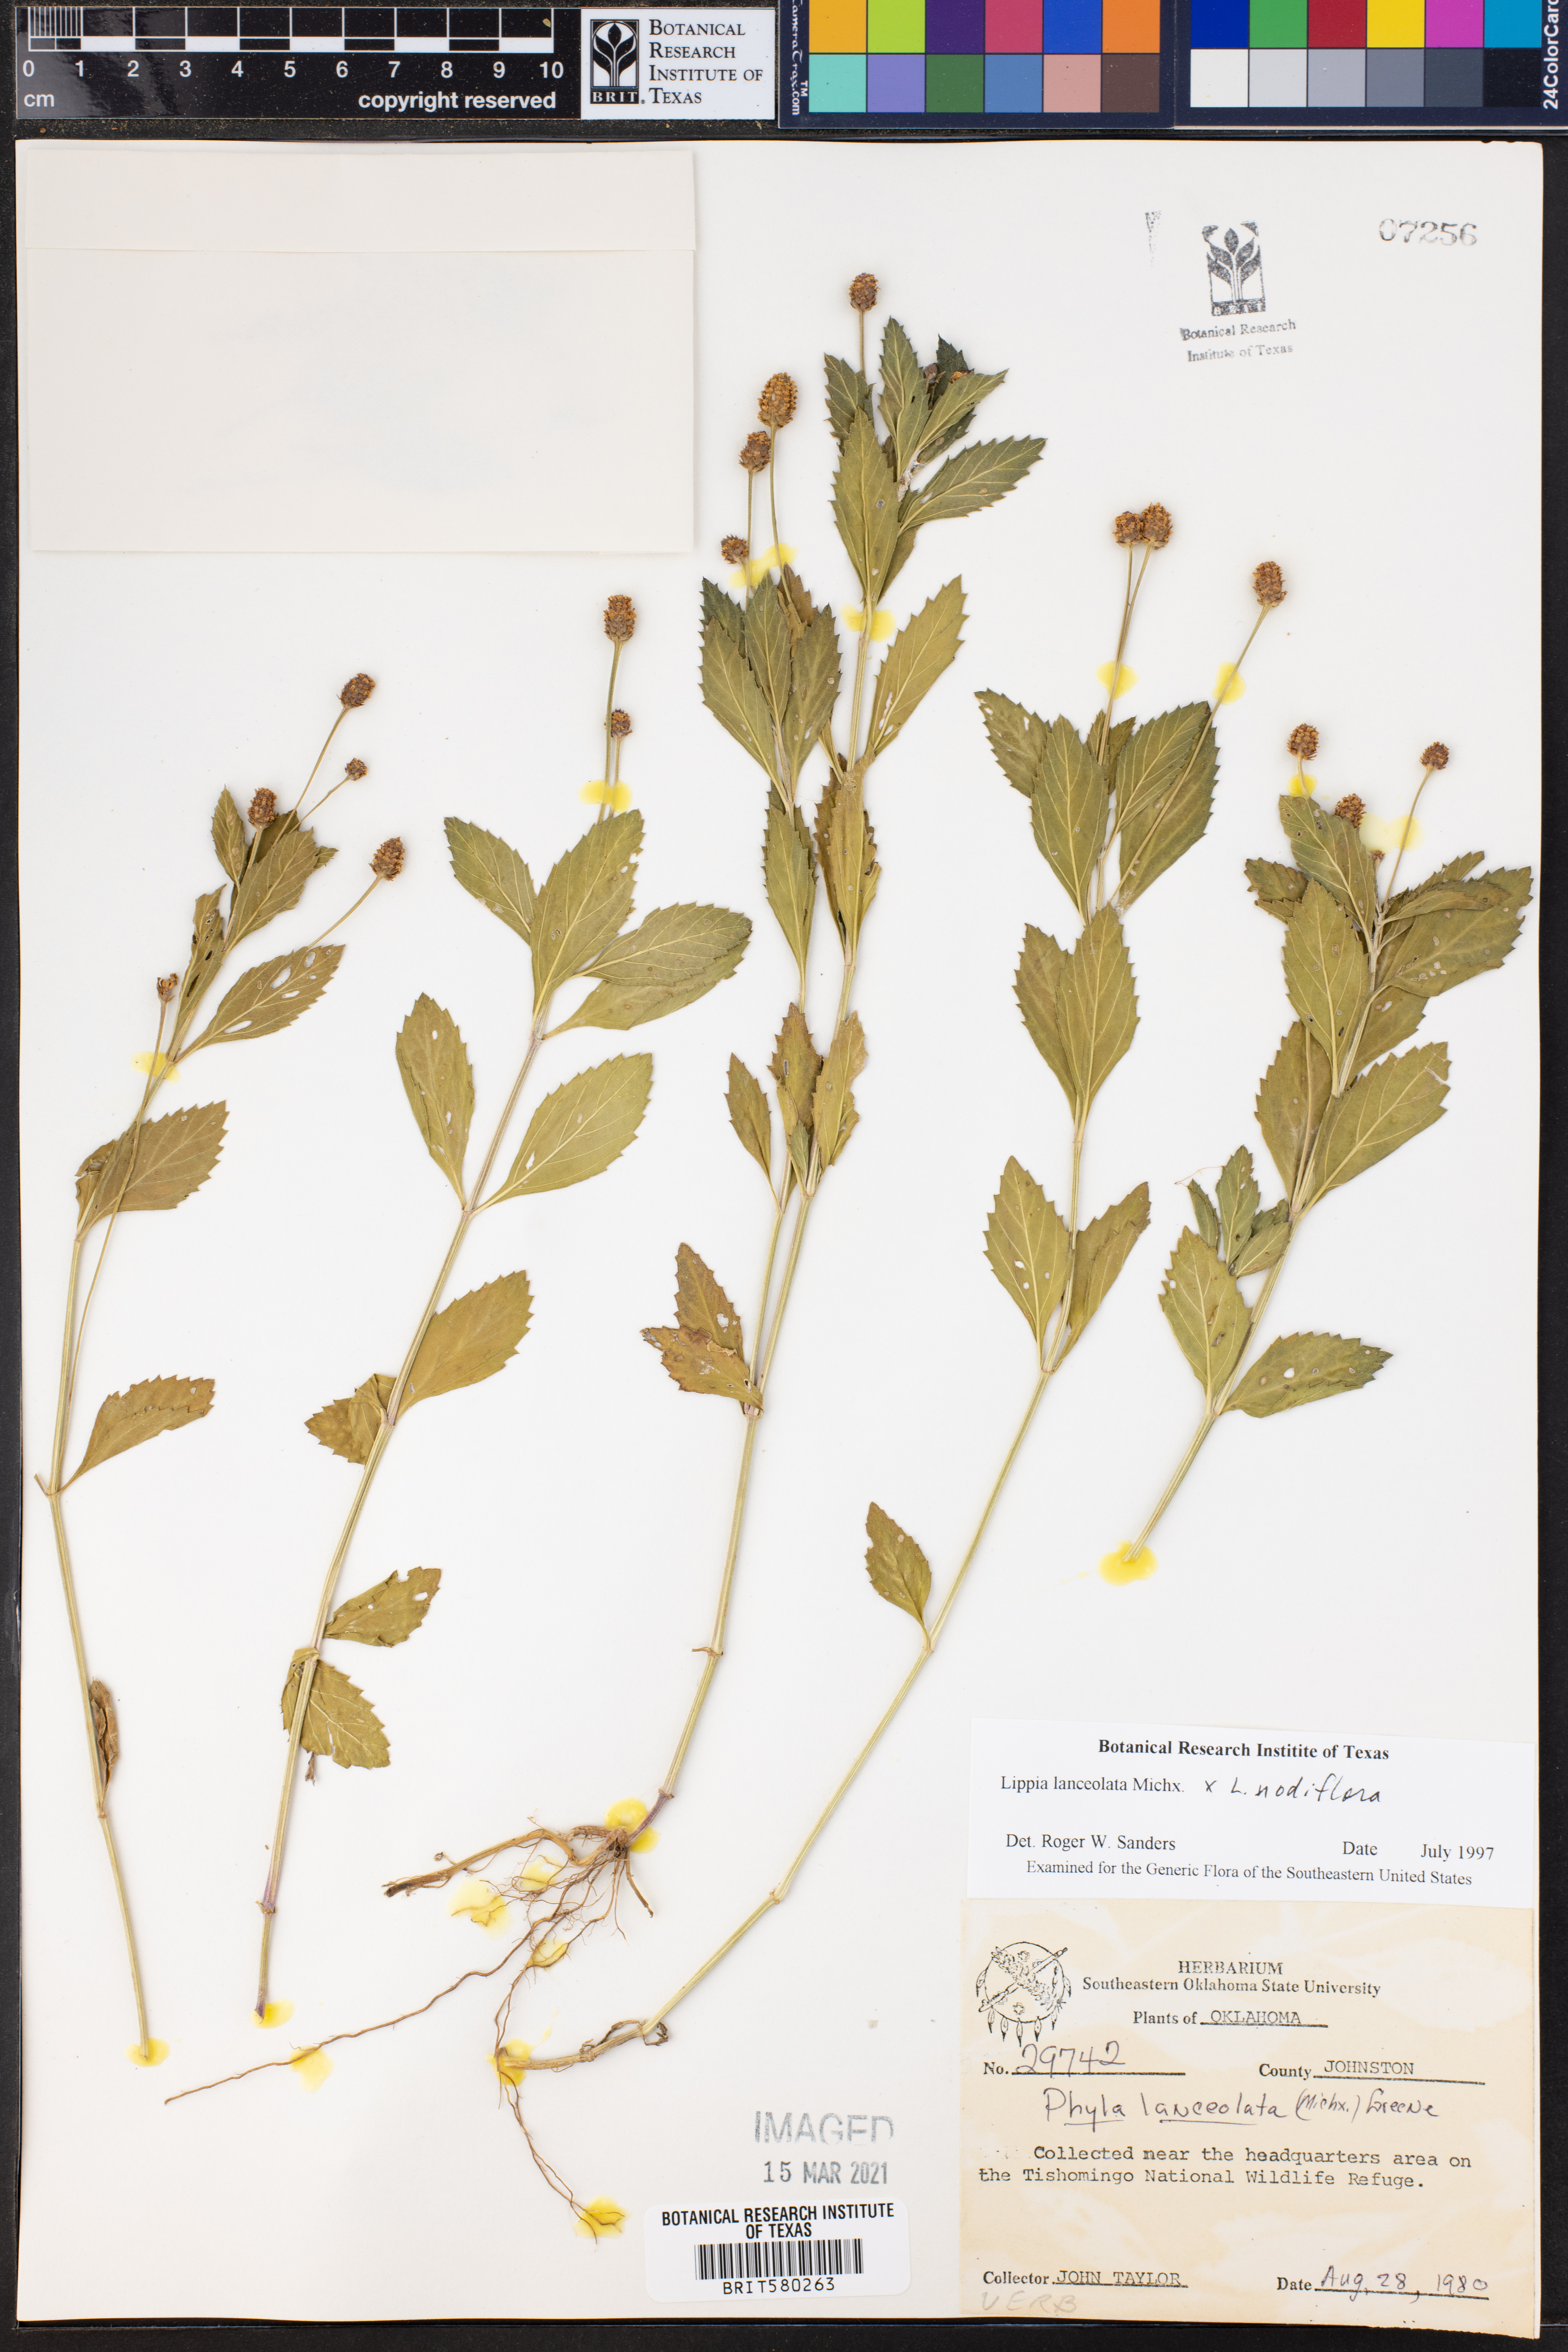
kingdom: Plantae
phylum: Tracheophyta
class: Magnoliopsida
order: Lamiales
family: Verbenaceae
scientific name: Verbenaceae
